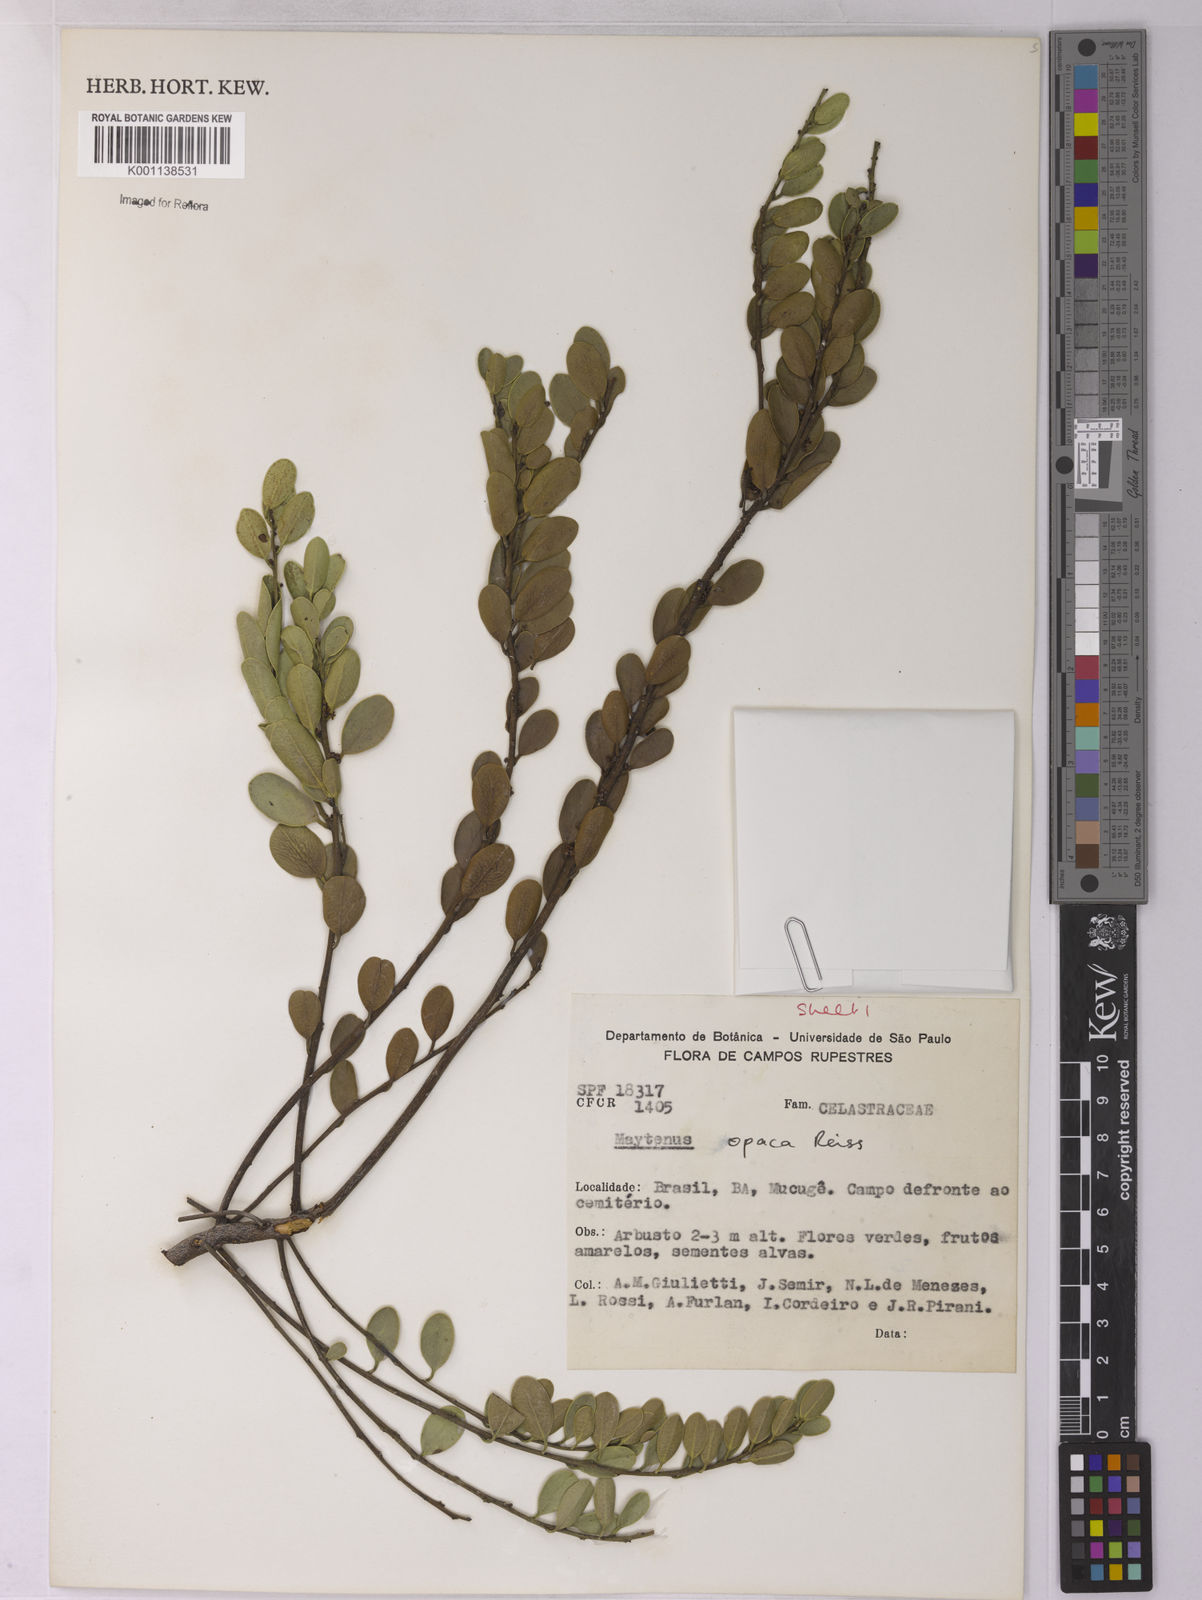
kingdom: Plantae
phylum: Tracheophyta
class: Magnoliopsida
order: Celastrales
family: Celastraceae
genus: Monteverdia
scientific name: Monteverdia opaca
